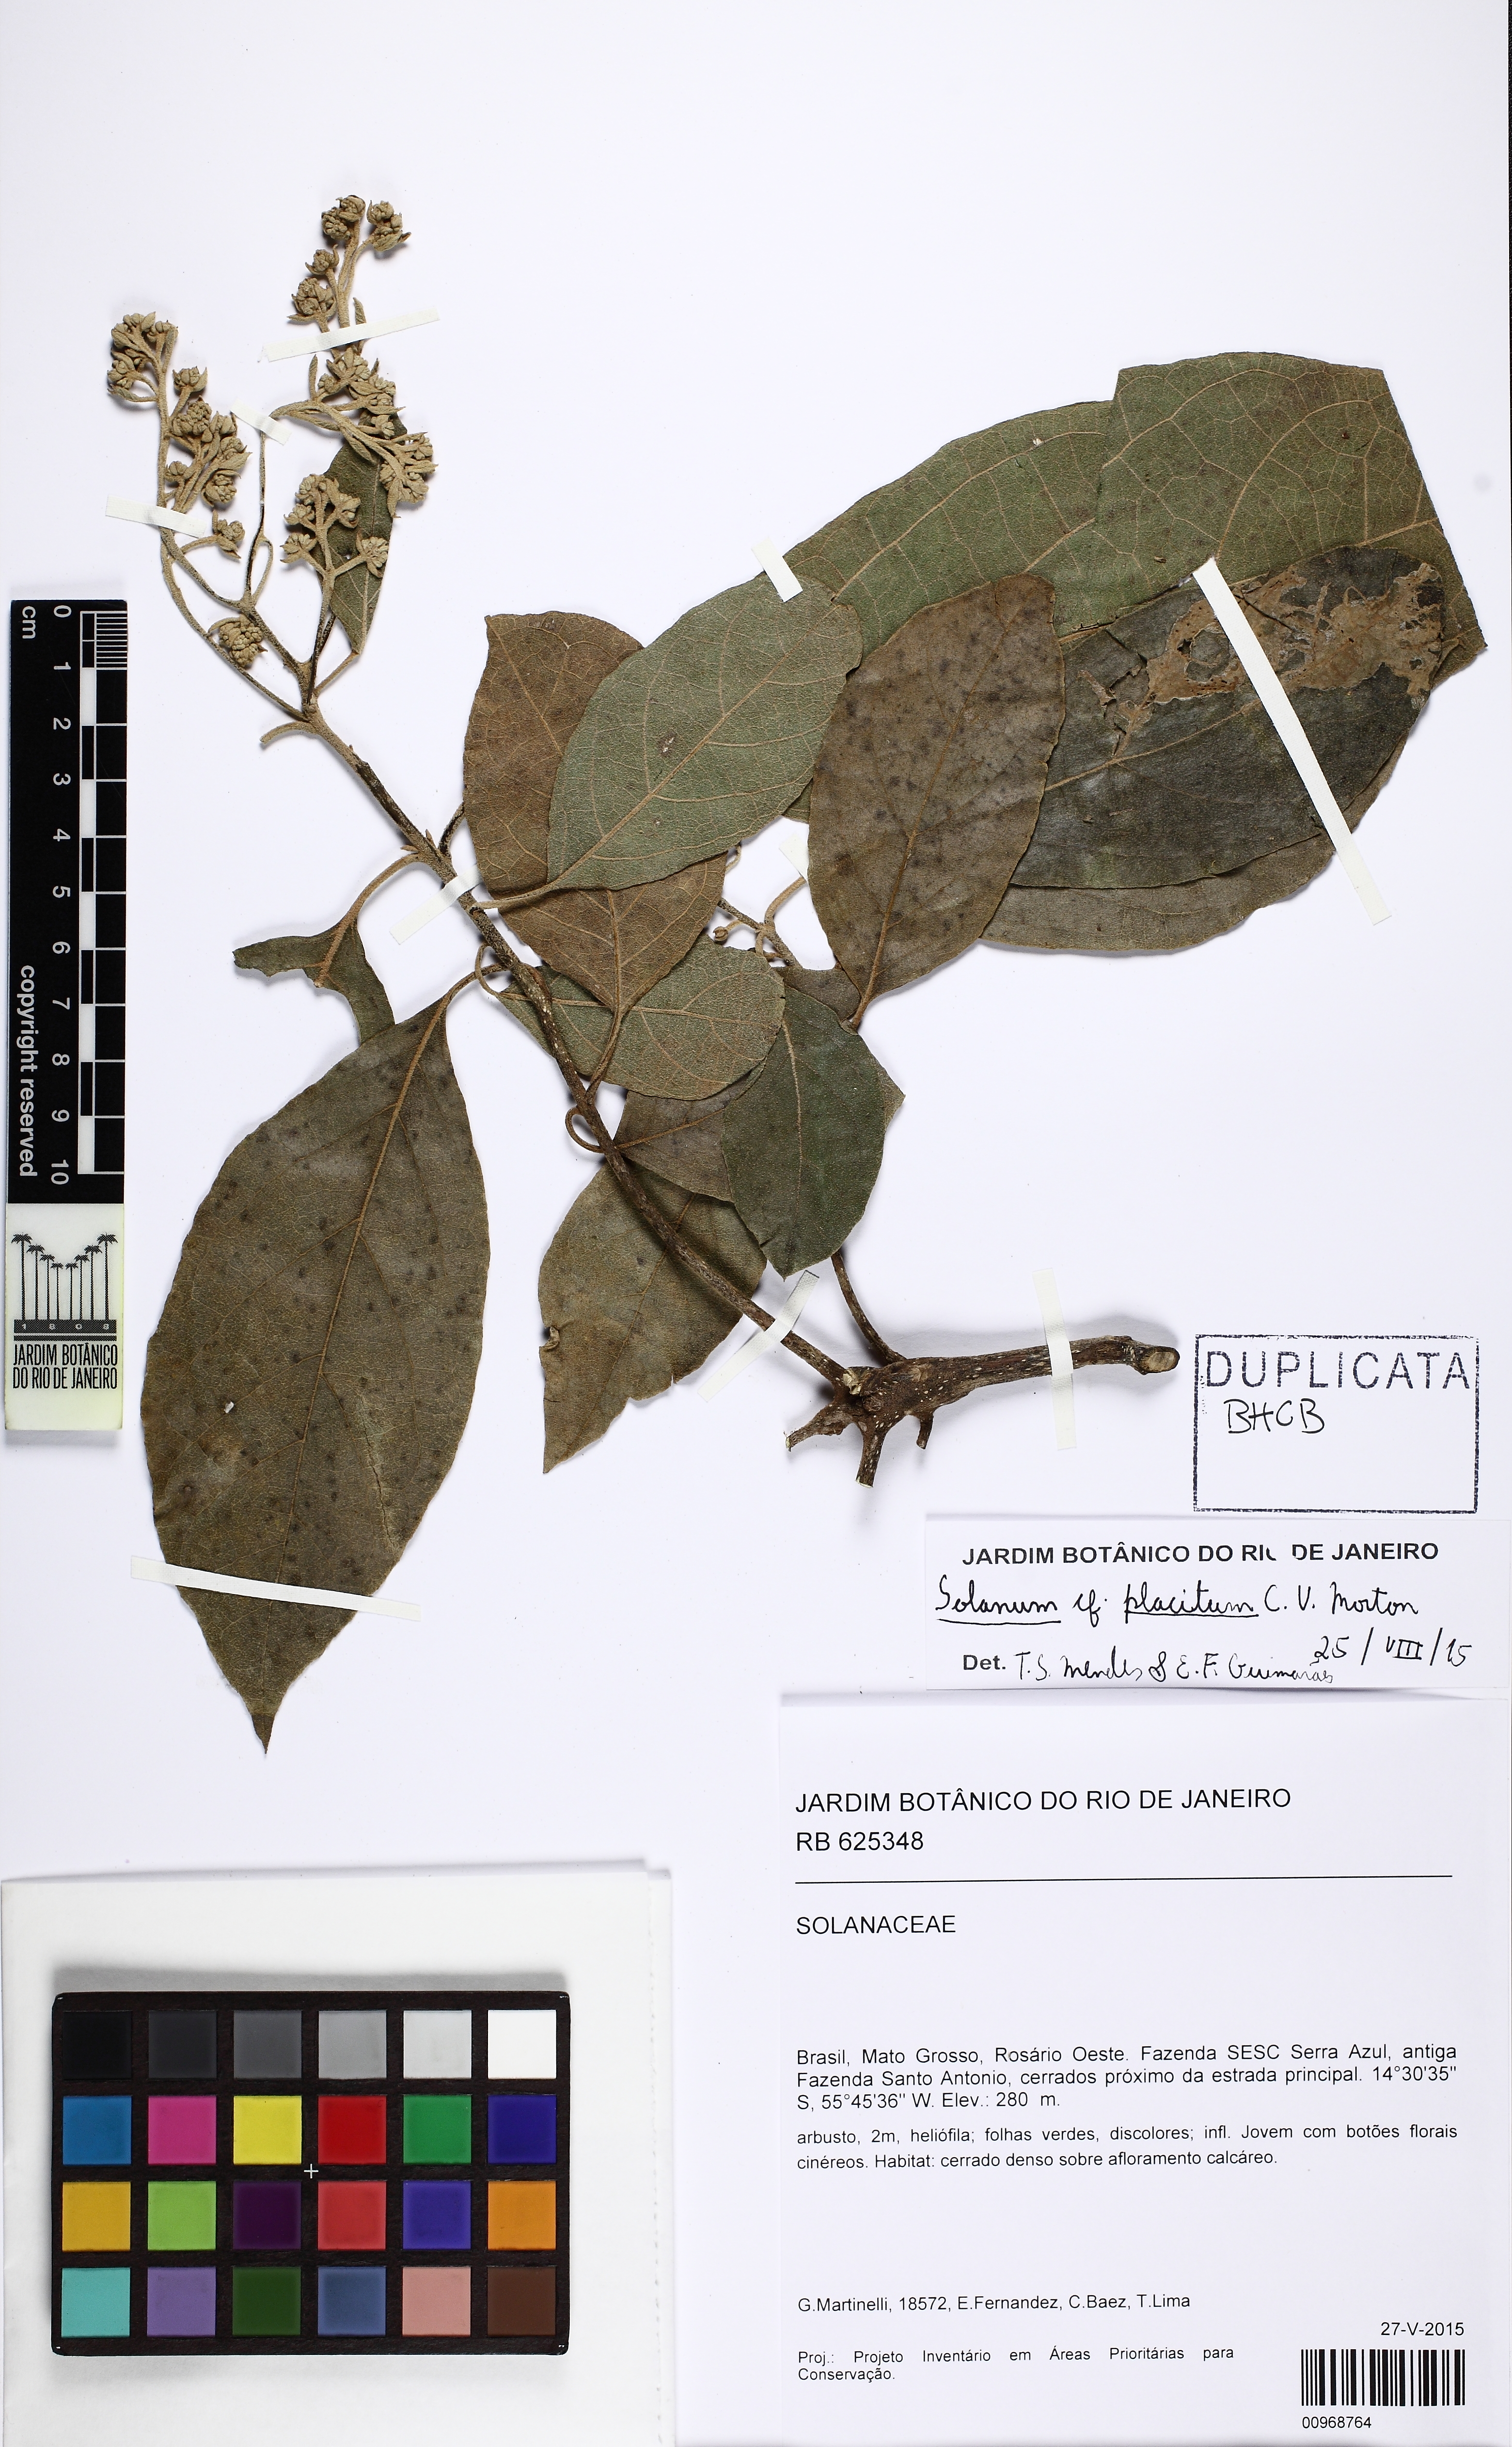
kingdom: Plantae
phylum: Tracheophyta
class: Magnoliopsida
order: Boraginales
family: Boraginaceae
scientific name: Boraginaceae
